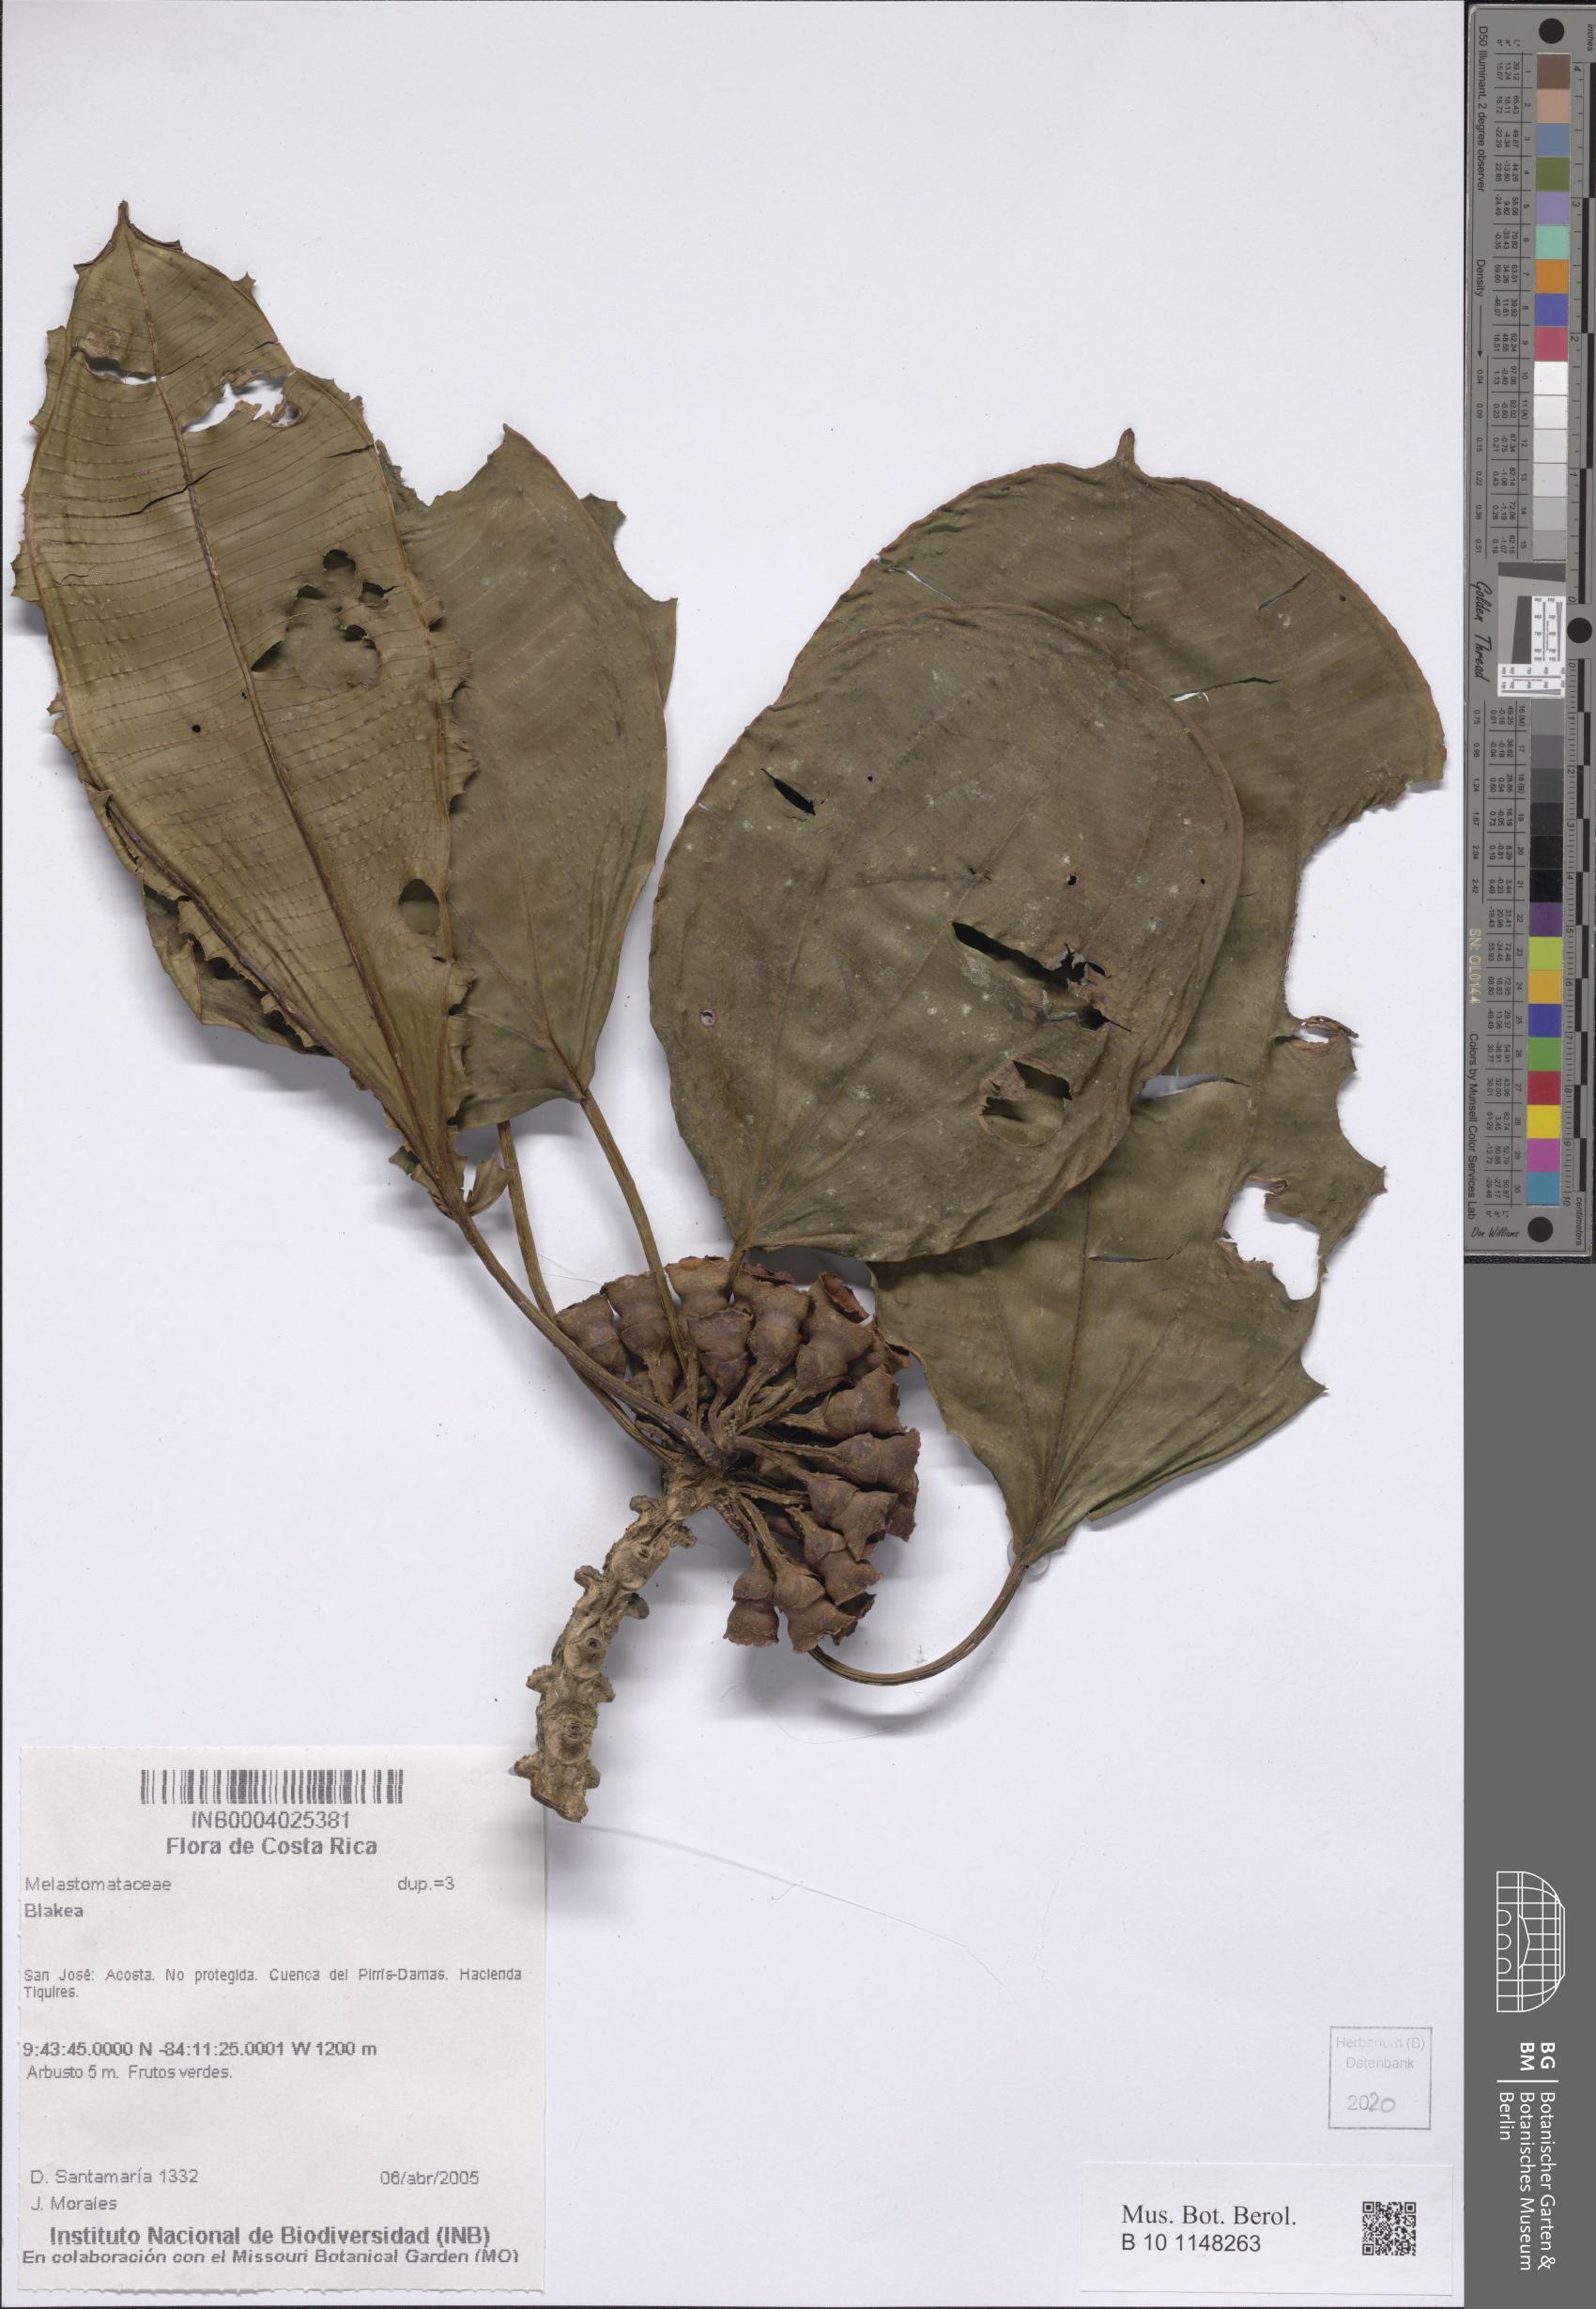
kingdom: Plantae
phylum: Tracheophyta
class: Magnoliopsida
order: Myrtales
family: Melastomataceae
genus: Blakea
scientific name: Blakea
